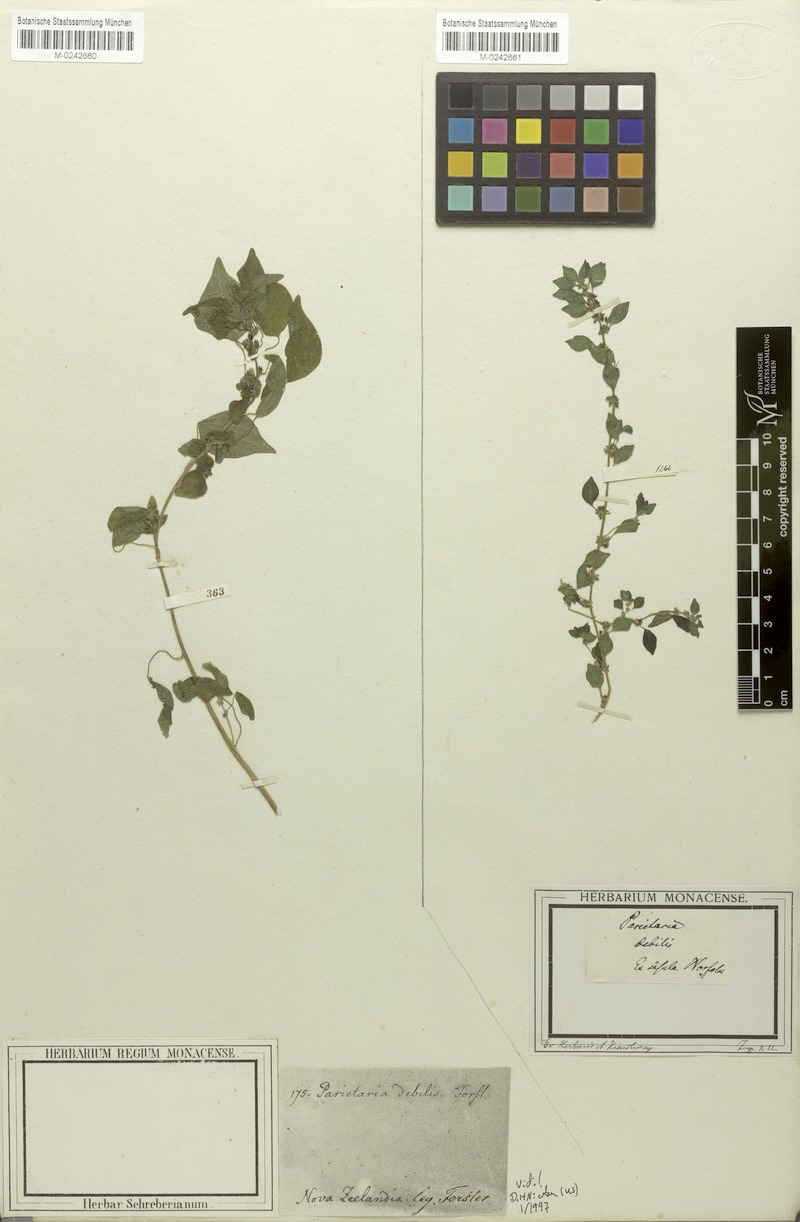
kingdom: Plantae
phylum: Tracheophyta
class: Magnoliopsida
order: Rosales
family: Urticaceae
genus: Parietaria
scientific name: Parietaria debilis
